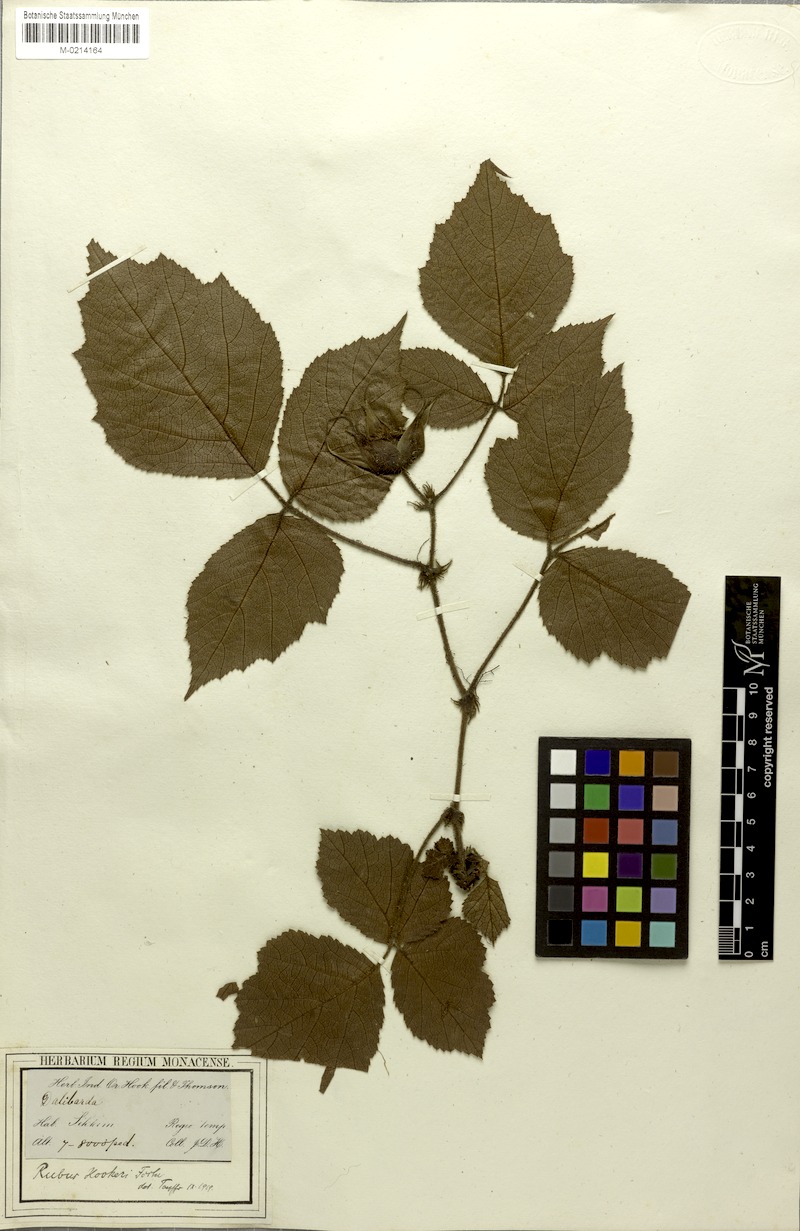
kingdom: Plantae
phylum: Tracheophyta
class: Magnoliopsida
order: Rosales
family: Rosaceae
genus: Rubus
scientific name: Rubus wardii
